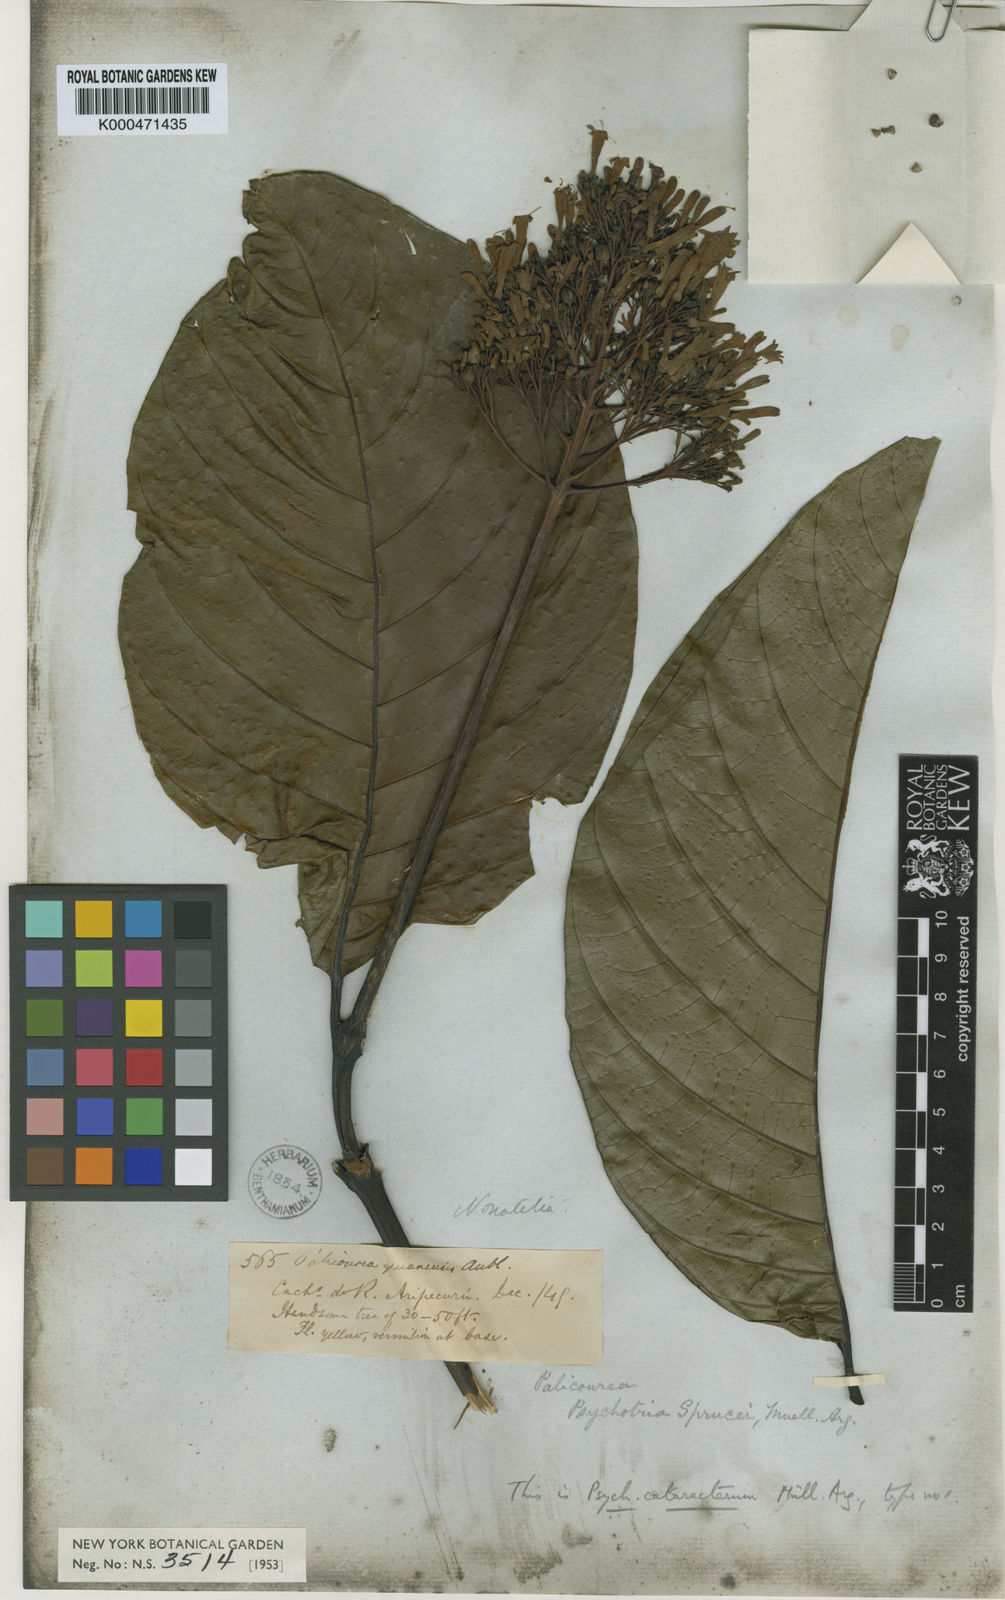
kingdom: Plantae
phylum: Tracheophyta
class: Magnoliopsida
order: Gentianales
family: Rubiaceae
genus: Palicourea
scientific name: Palicourea guianensis
